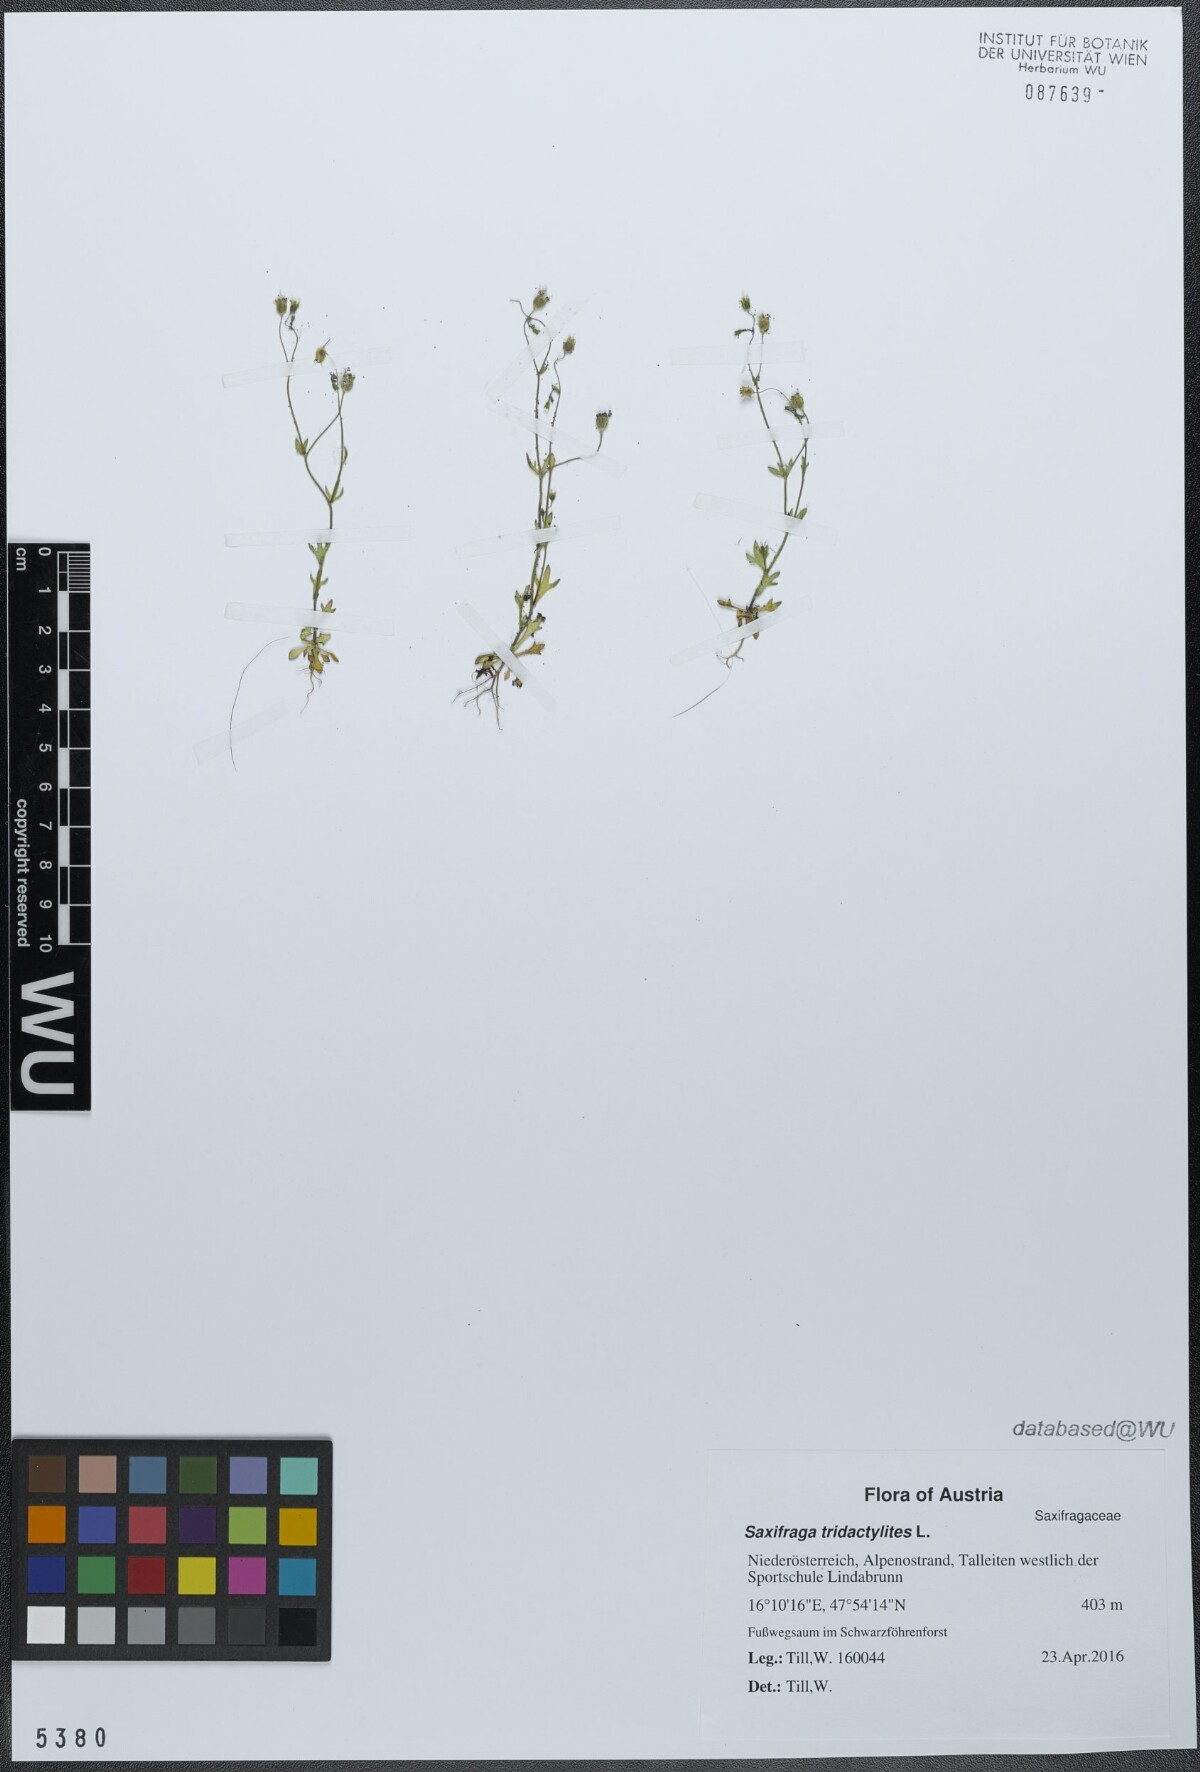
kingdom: Plantae
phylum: Tracheophyta
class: Magnoliopsida
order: Saxifragales
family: Saxifragaceae
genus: Saxifraga
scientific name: Saxifraga tridactylites
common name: Rue-leaved saxifrage
